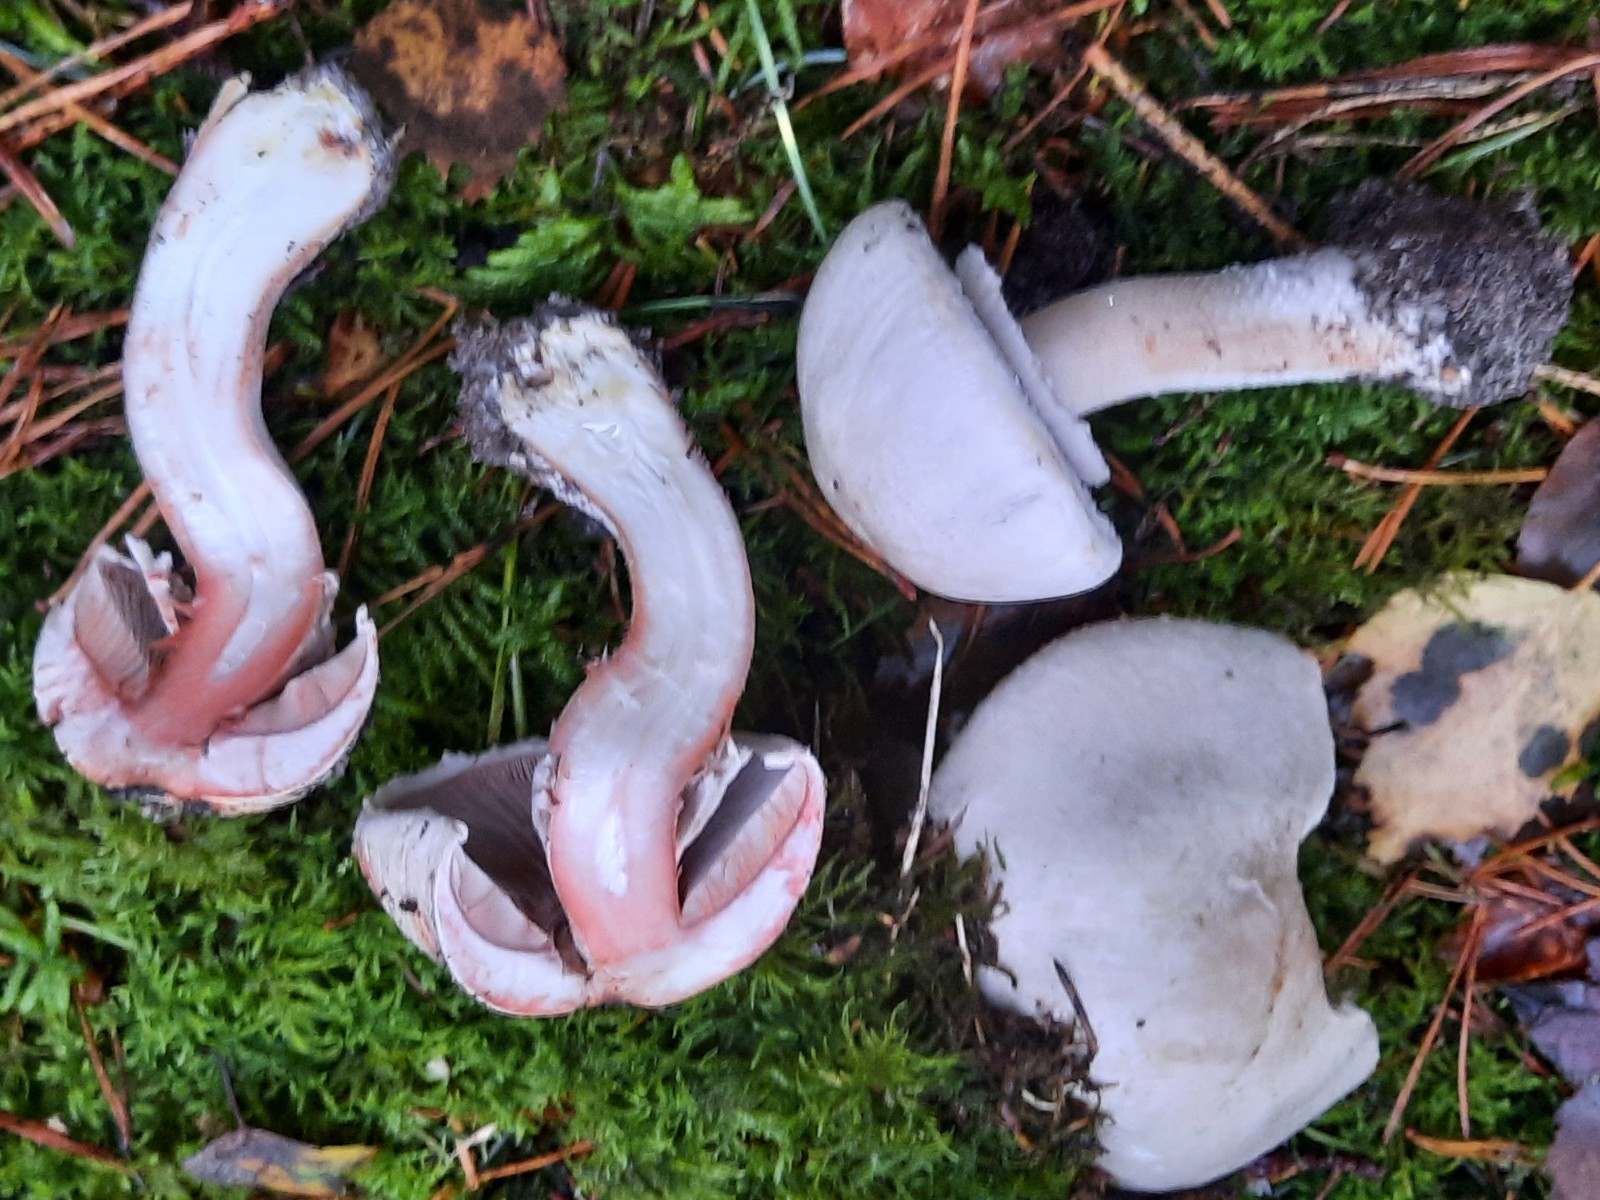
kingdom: Fungi
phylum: Basidiomycota
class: Agaricomycetes
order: Agaricales
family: Agaricaceae
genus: Agaricus
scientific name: Agaricus
